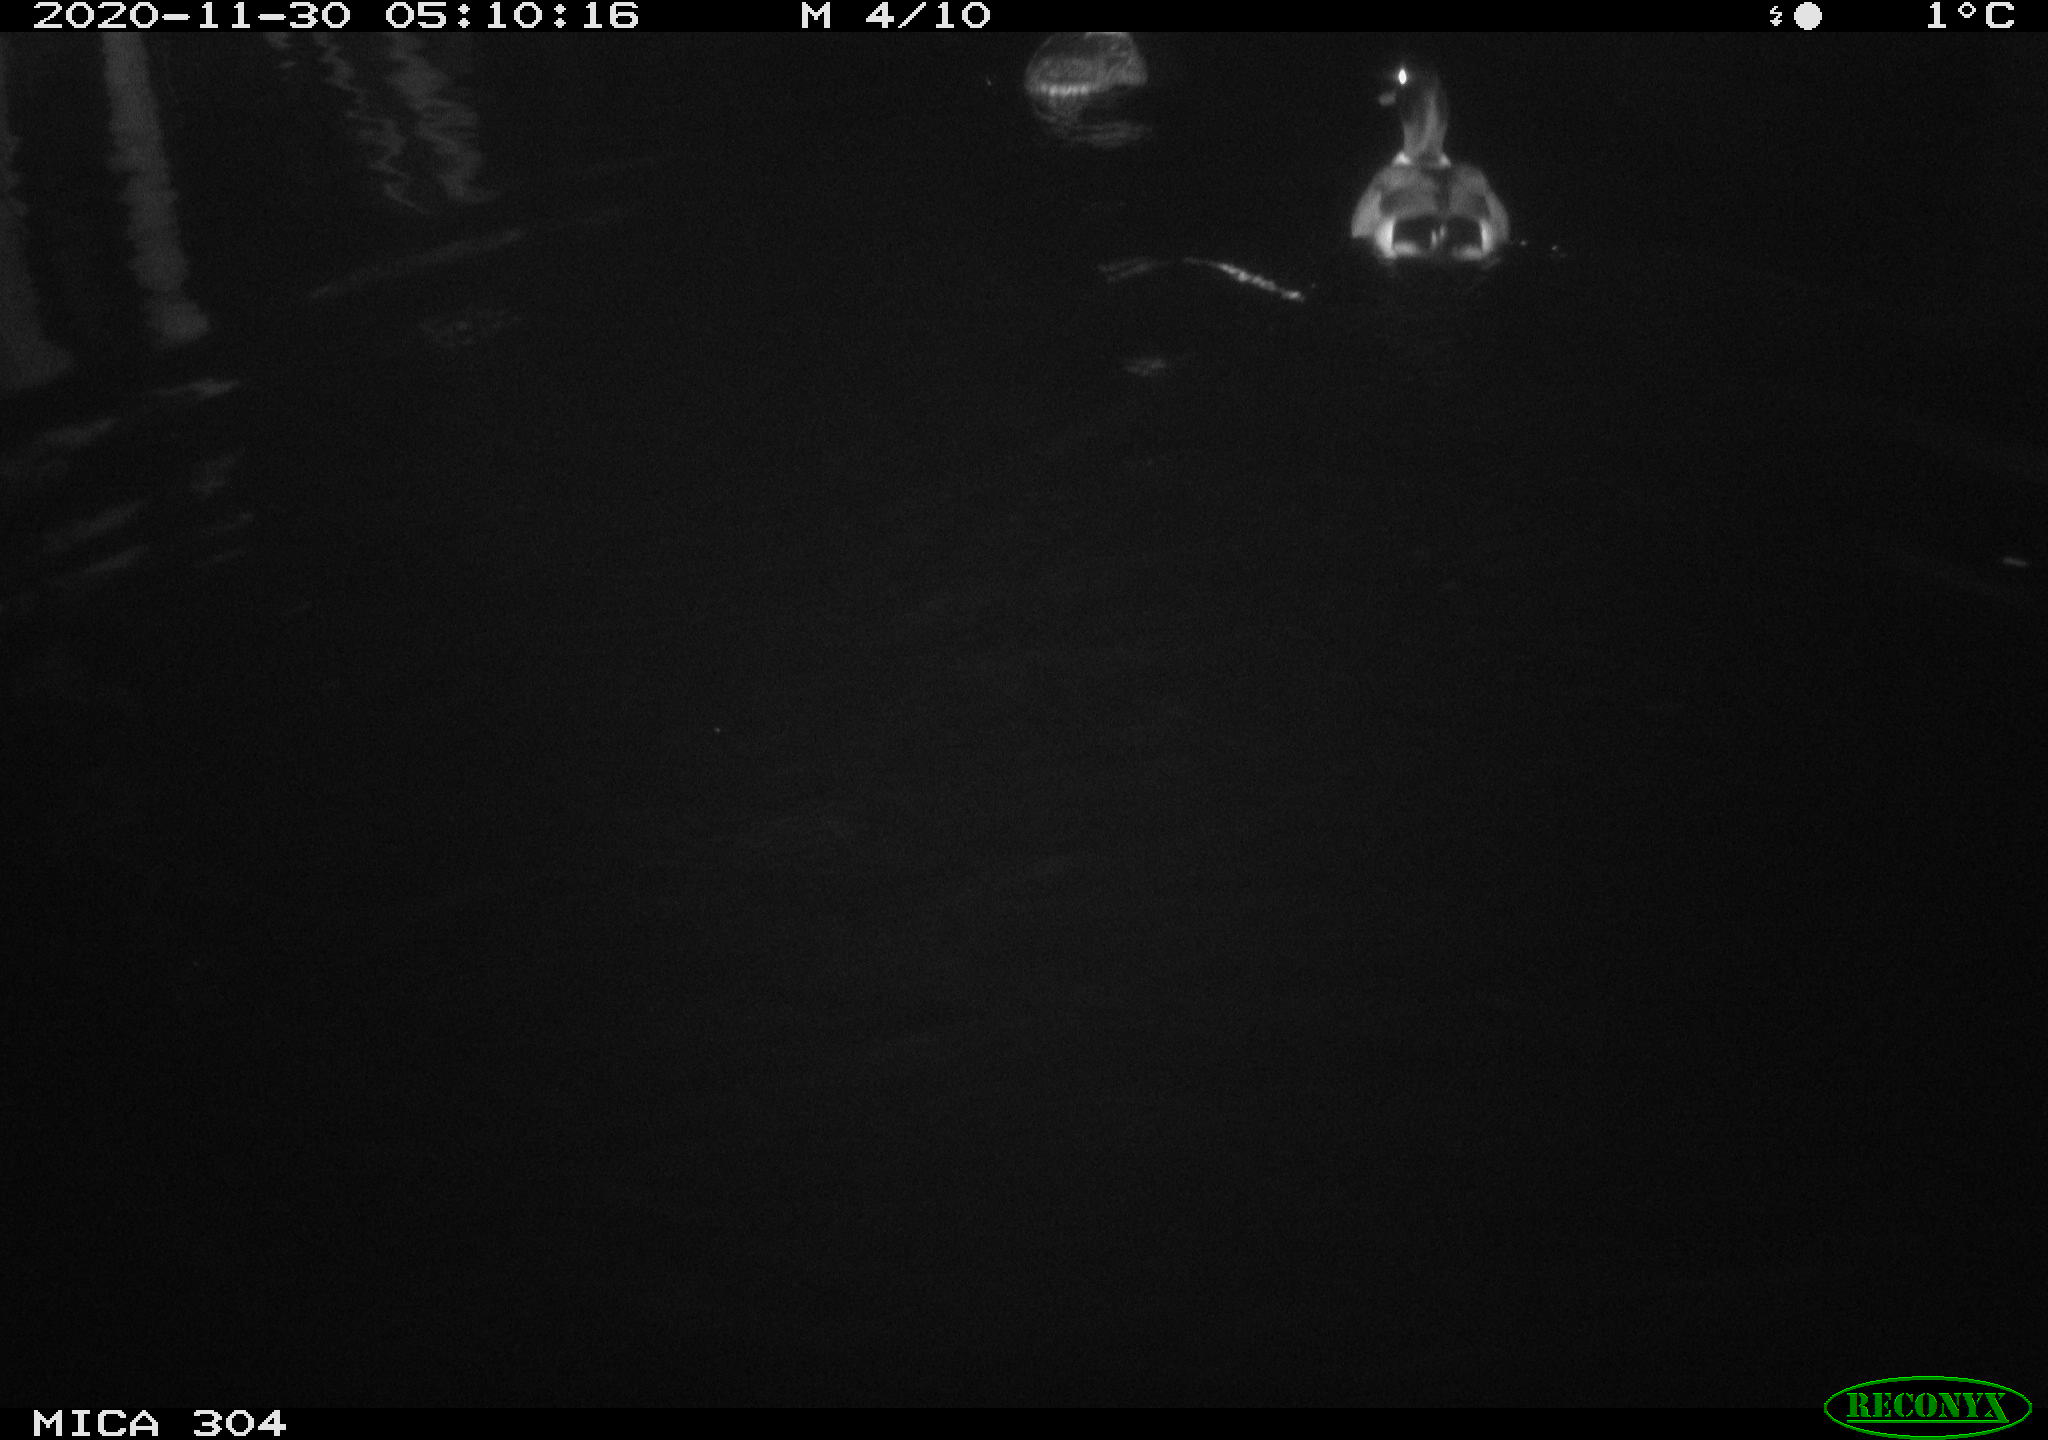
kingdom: Animalia
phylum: Chordata
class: Aves
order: Anseriformes
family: Anatidae
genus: Anas
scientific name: Anas platyrhynchos
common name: Mallard
